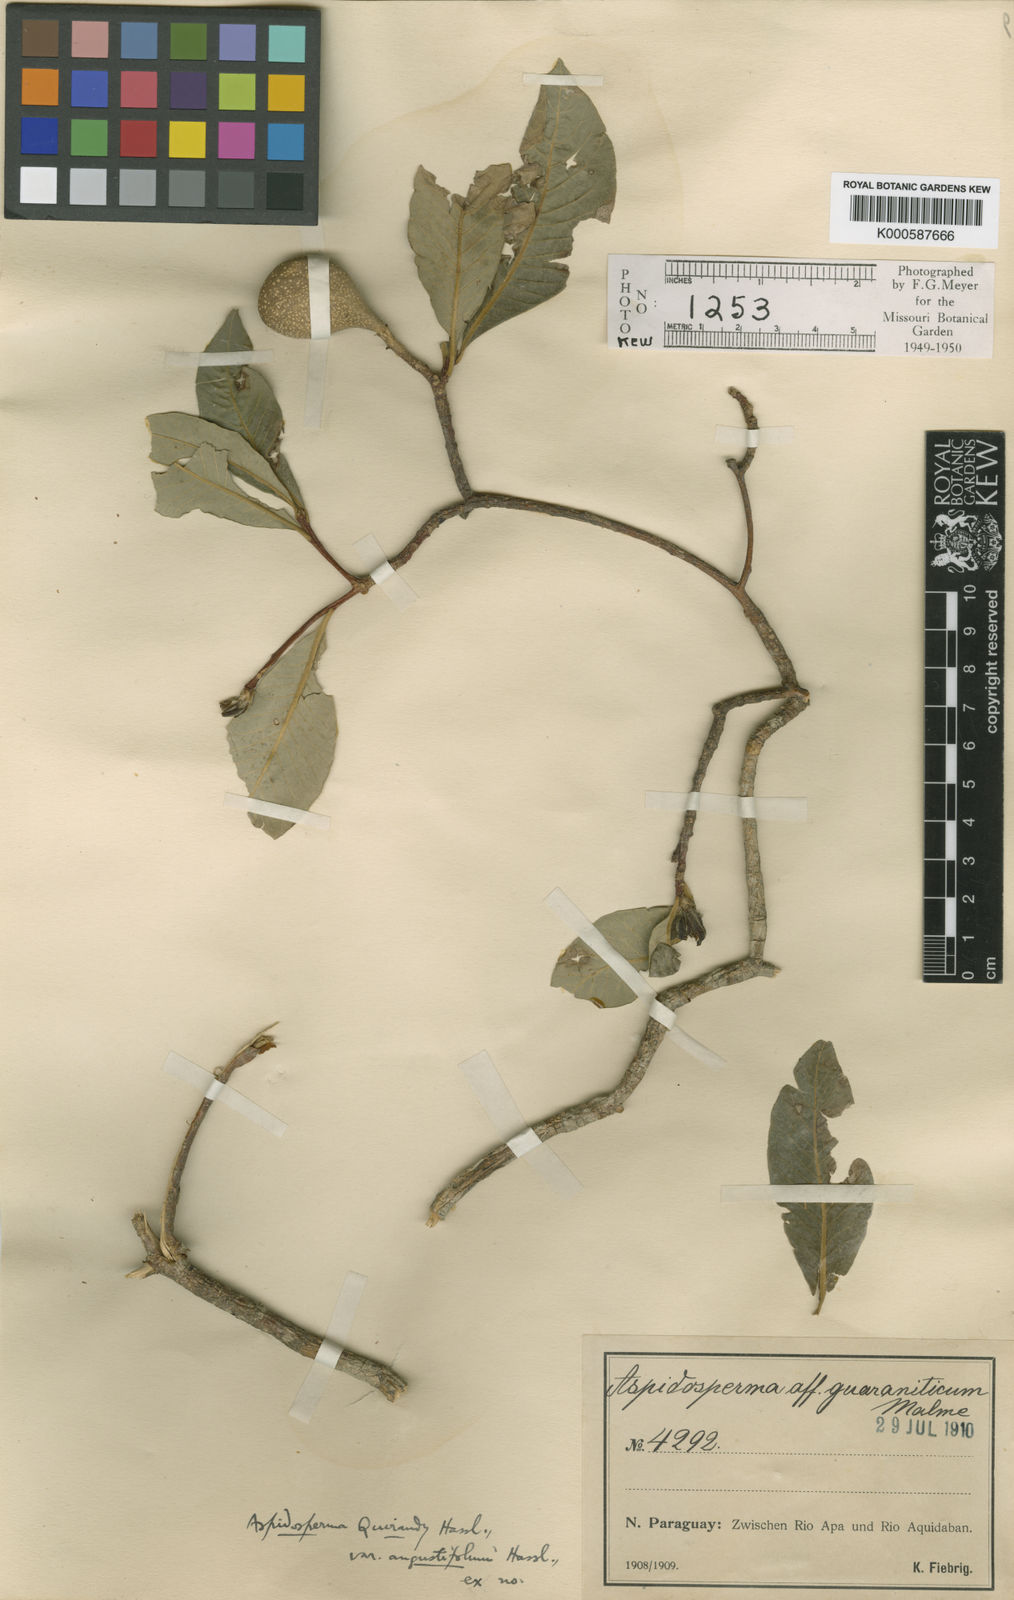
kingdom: Plantae
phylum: Tracheophyta
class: Magnoliopsida
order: Gentianales
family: Apocynaceae
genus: Aspidosperma
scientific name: Aspidosperma
